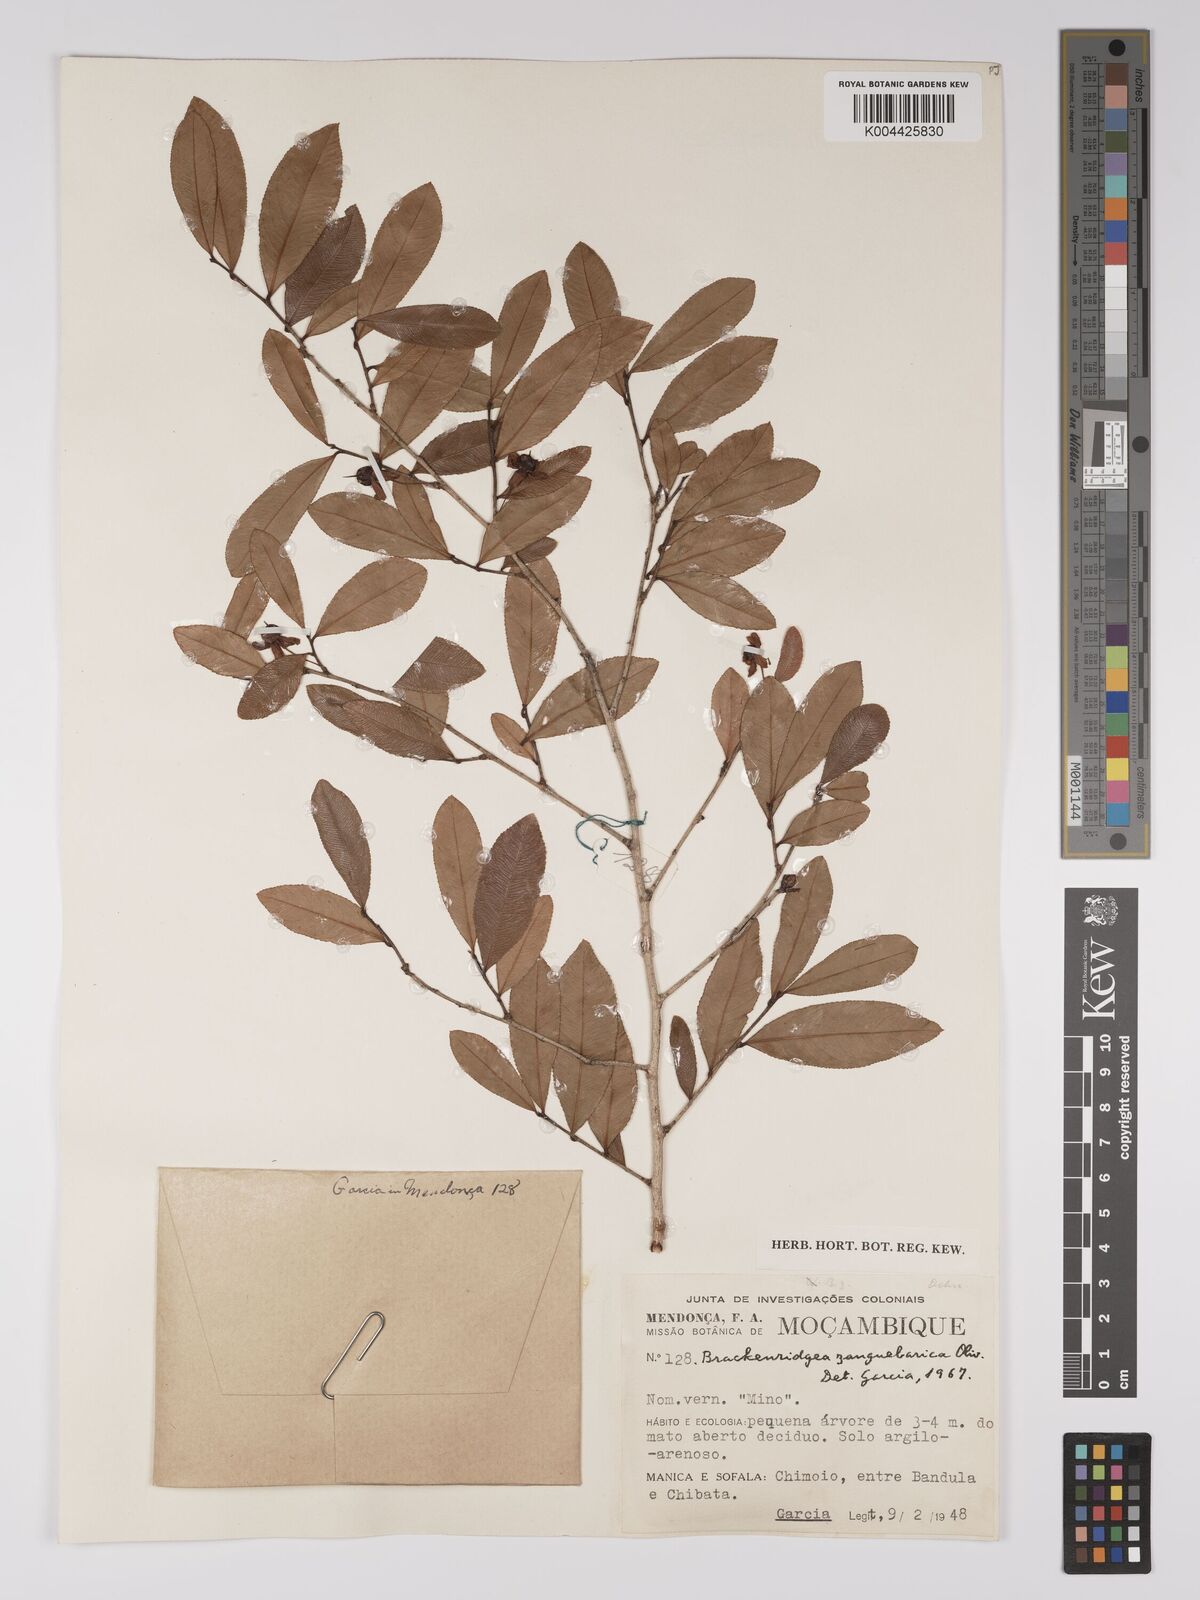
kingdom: Plantae
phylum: Tracheophyta
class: Magnoliopsida
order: Malpighiales
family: Ochnaceae
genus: Brackenridgea
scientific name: Brackenridgea zanguebarica
